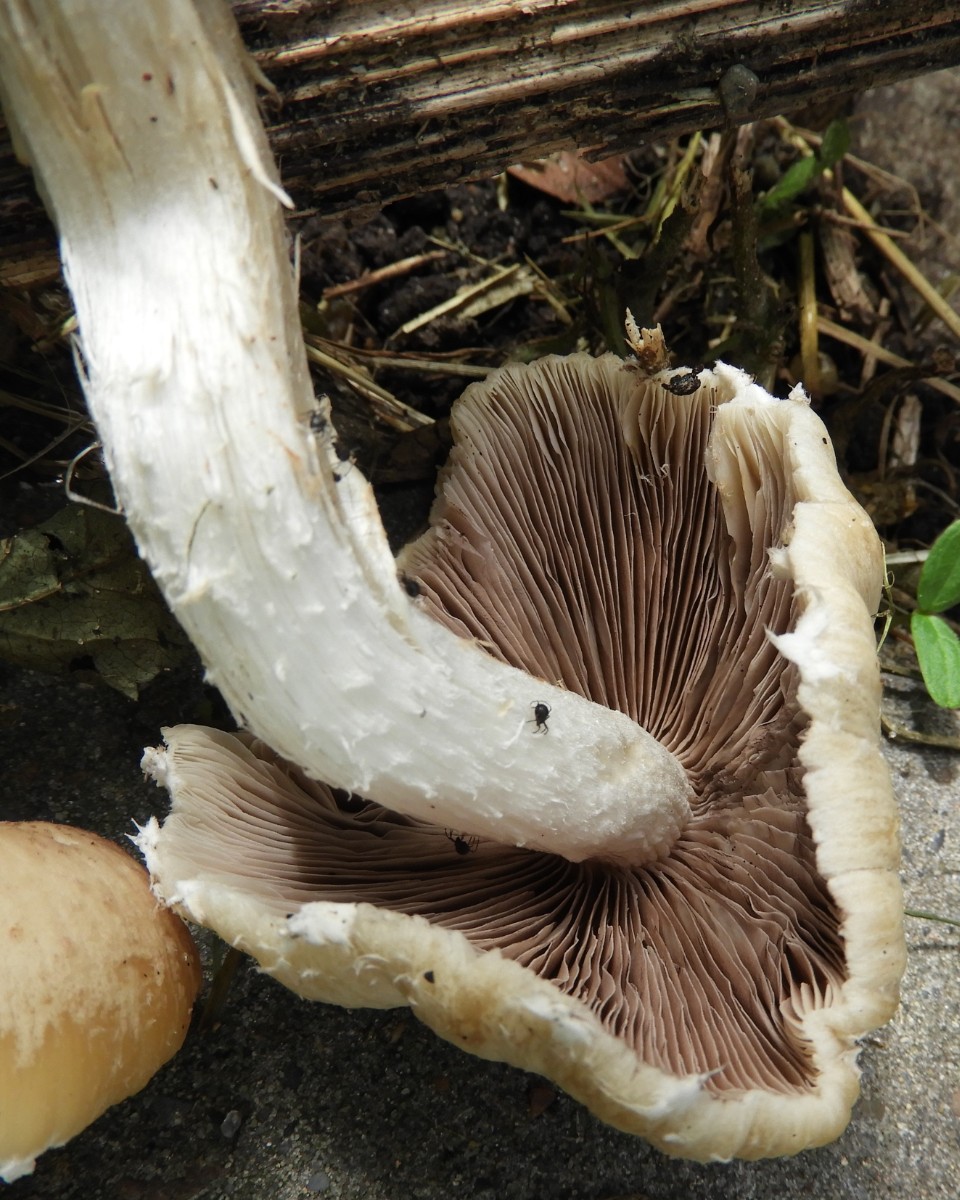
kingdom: Fungi
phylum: Basidiomycota
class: Agaricomycetes
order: Agaricales
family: Psathyrellaceae
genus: Candolleomyces
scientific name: Candolleomyces candolleanus
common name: Candolles mørkhat
